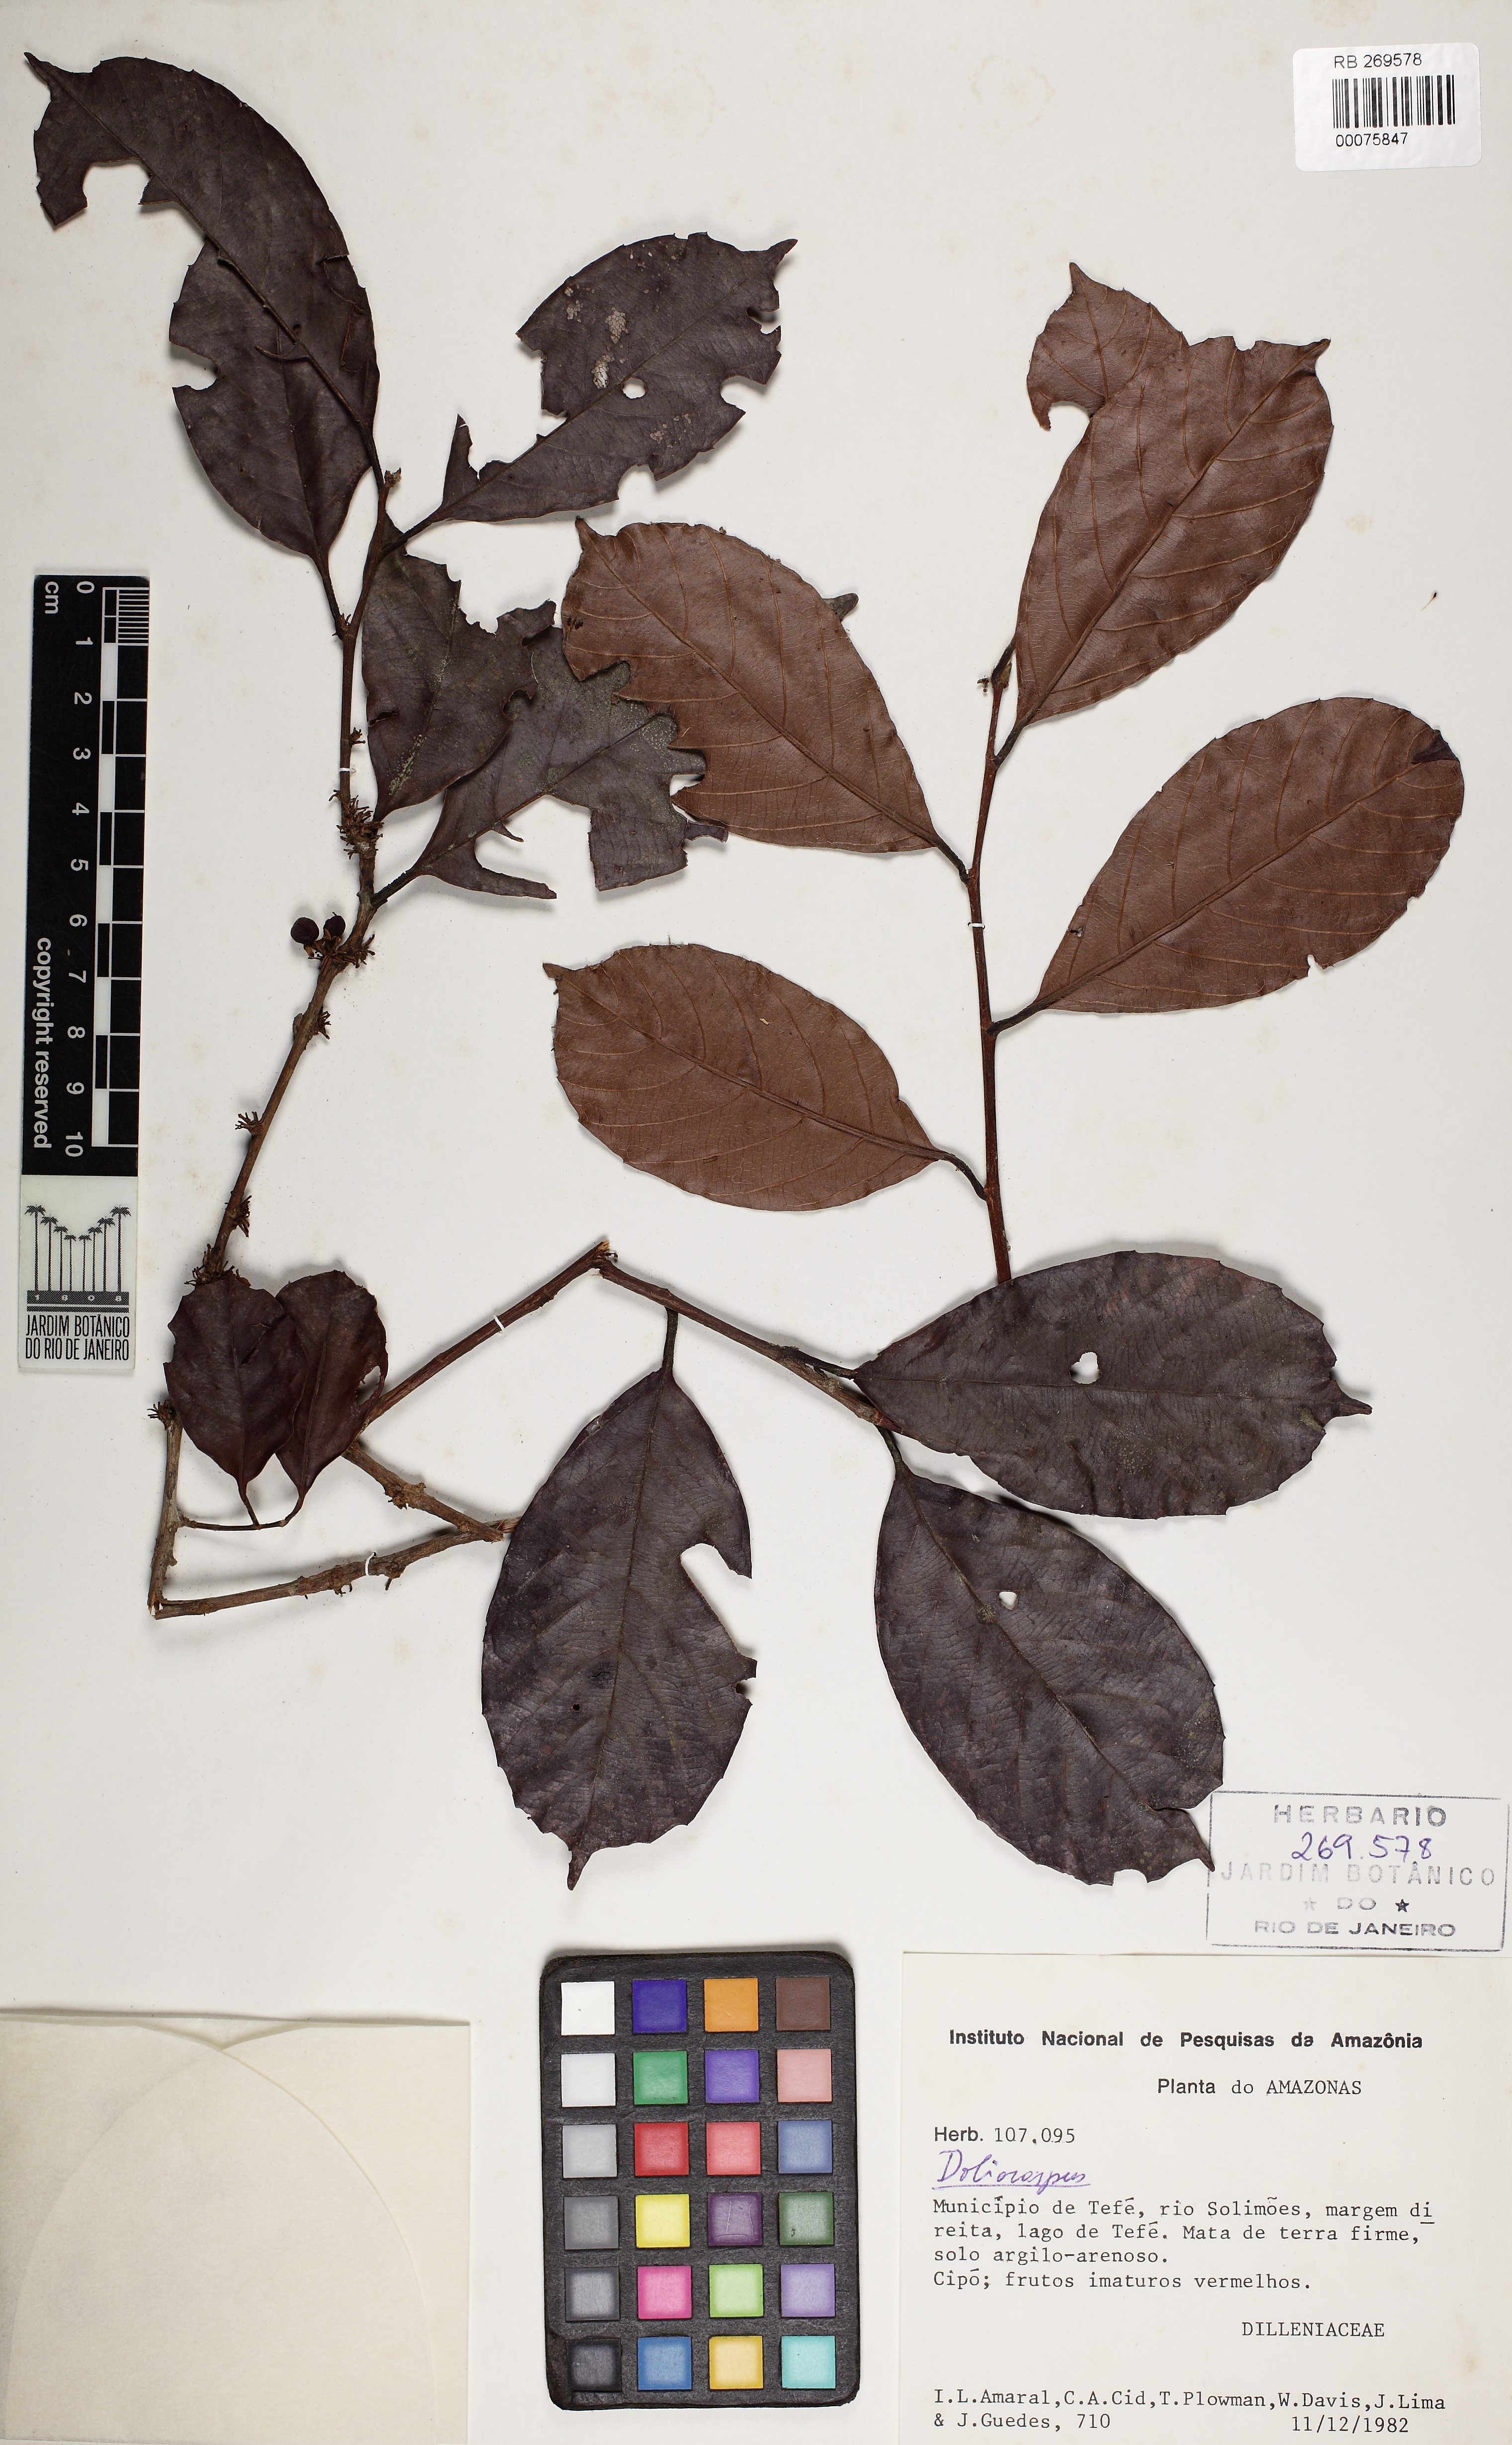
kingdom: Plantae
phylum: Tracheophyta
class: Magnoliopsida
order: Dilleniales
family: Dilleniaceae
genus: Doliocarpus
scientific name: Doliocarpus brevipedicellatus
